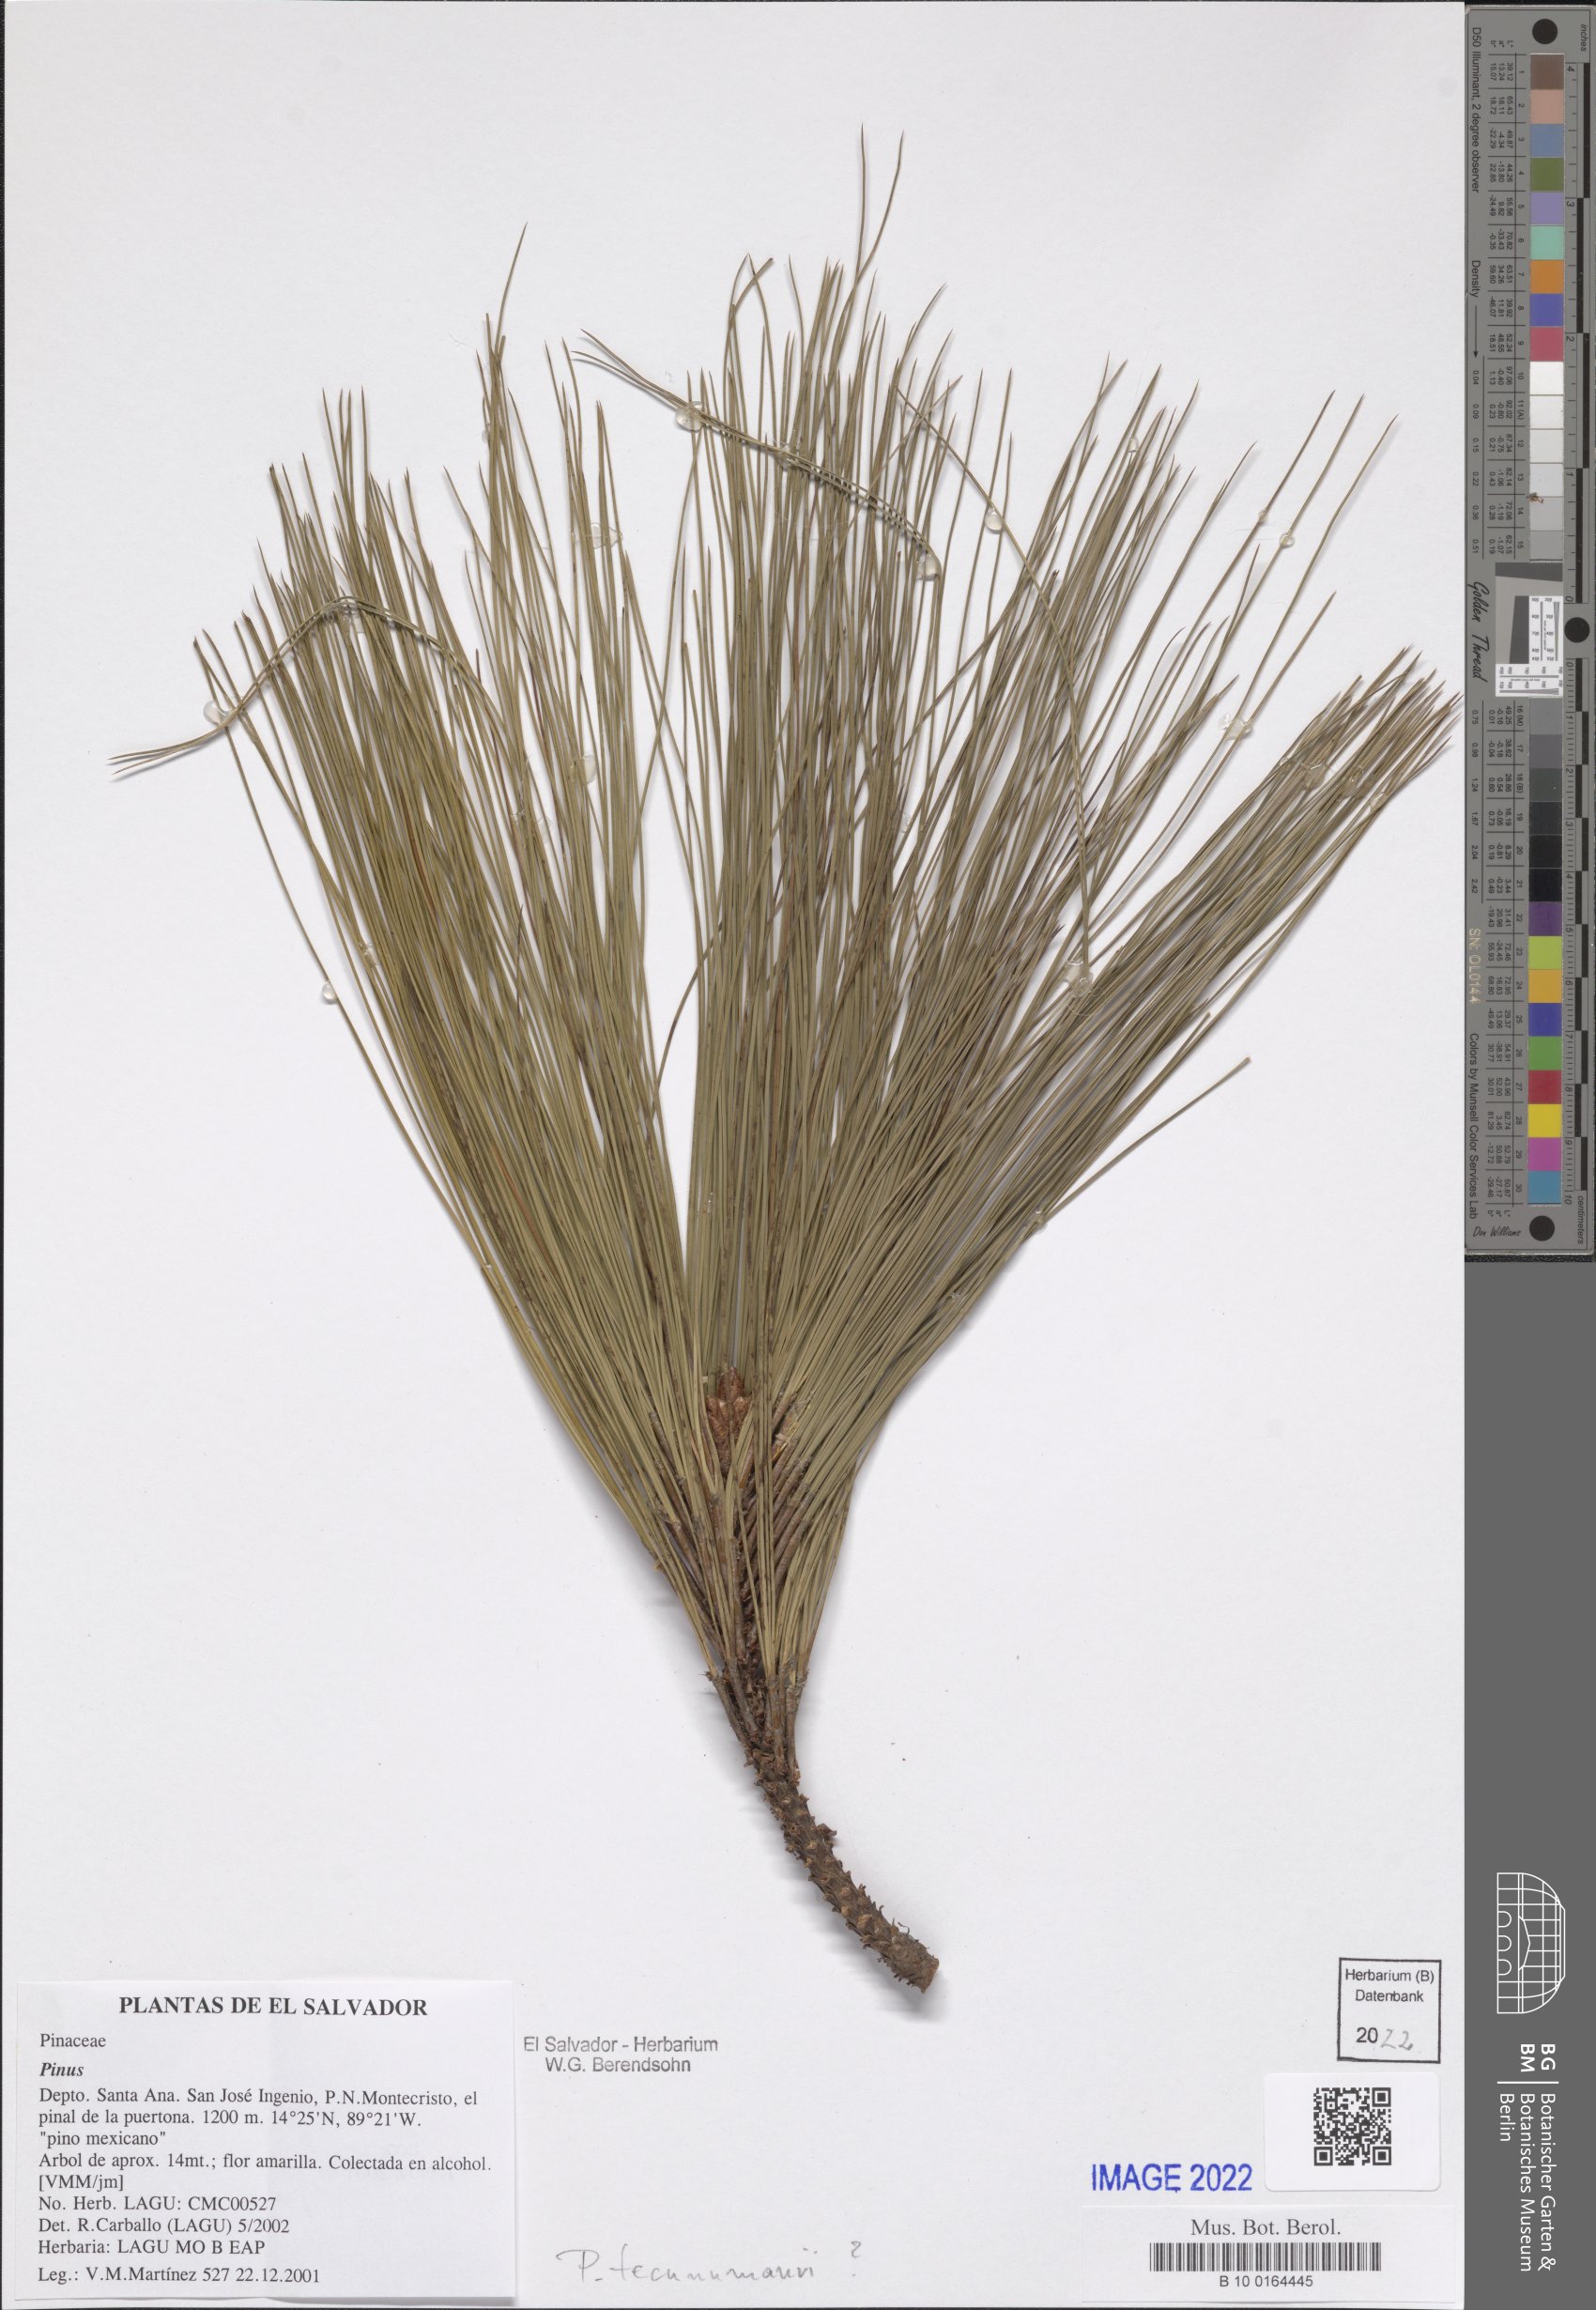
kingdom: Plantae
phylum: Tracheophyta
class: Pinopsida
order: Pinales
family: Pinaceae
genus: Pinus
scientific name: Pinus
